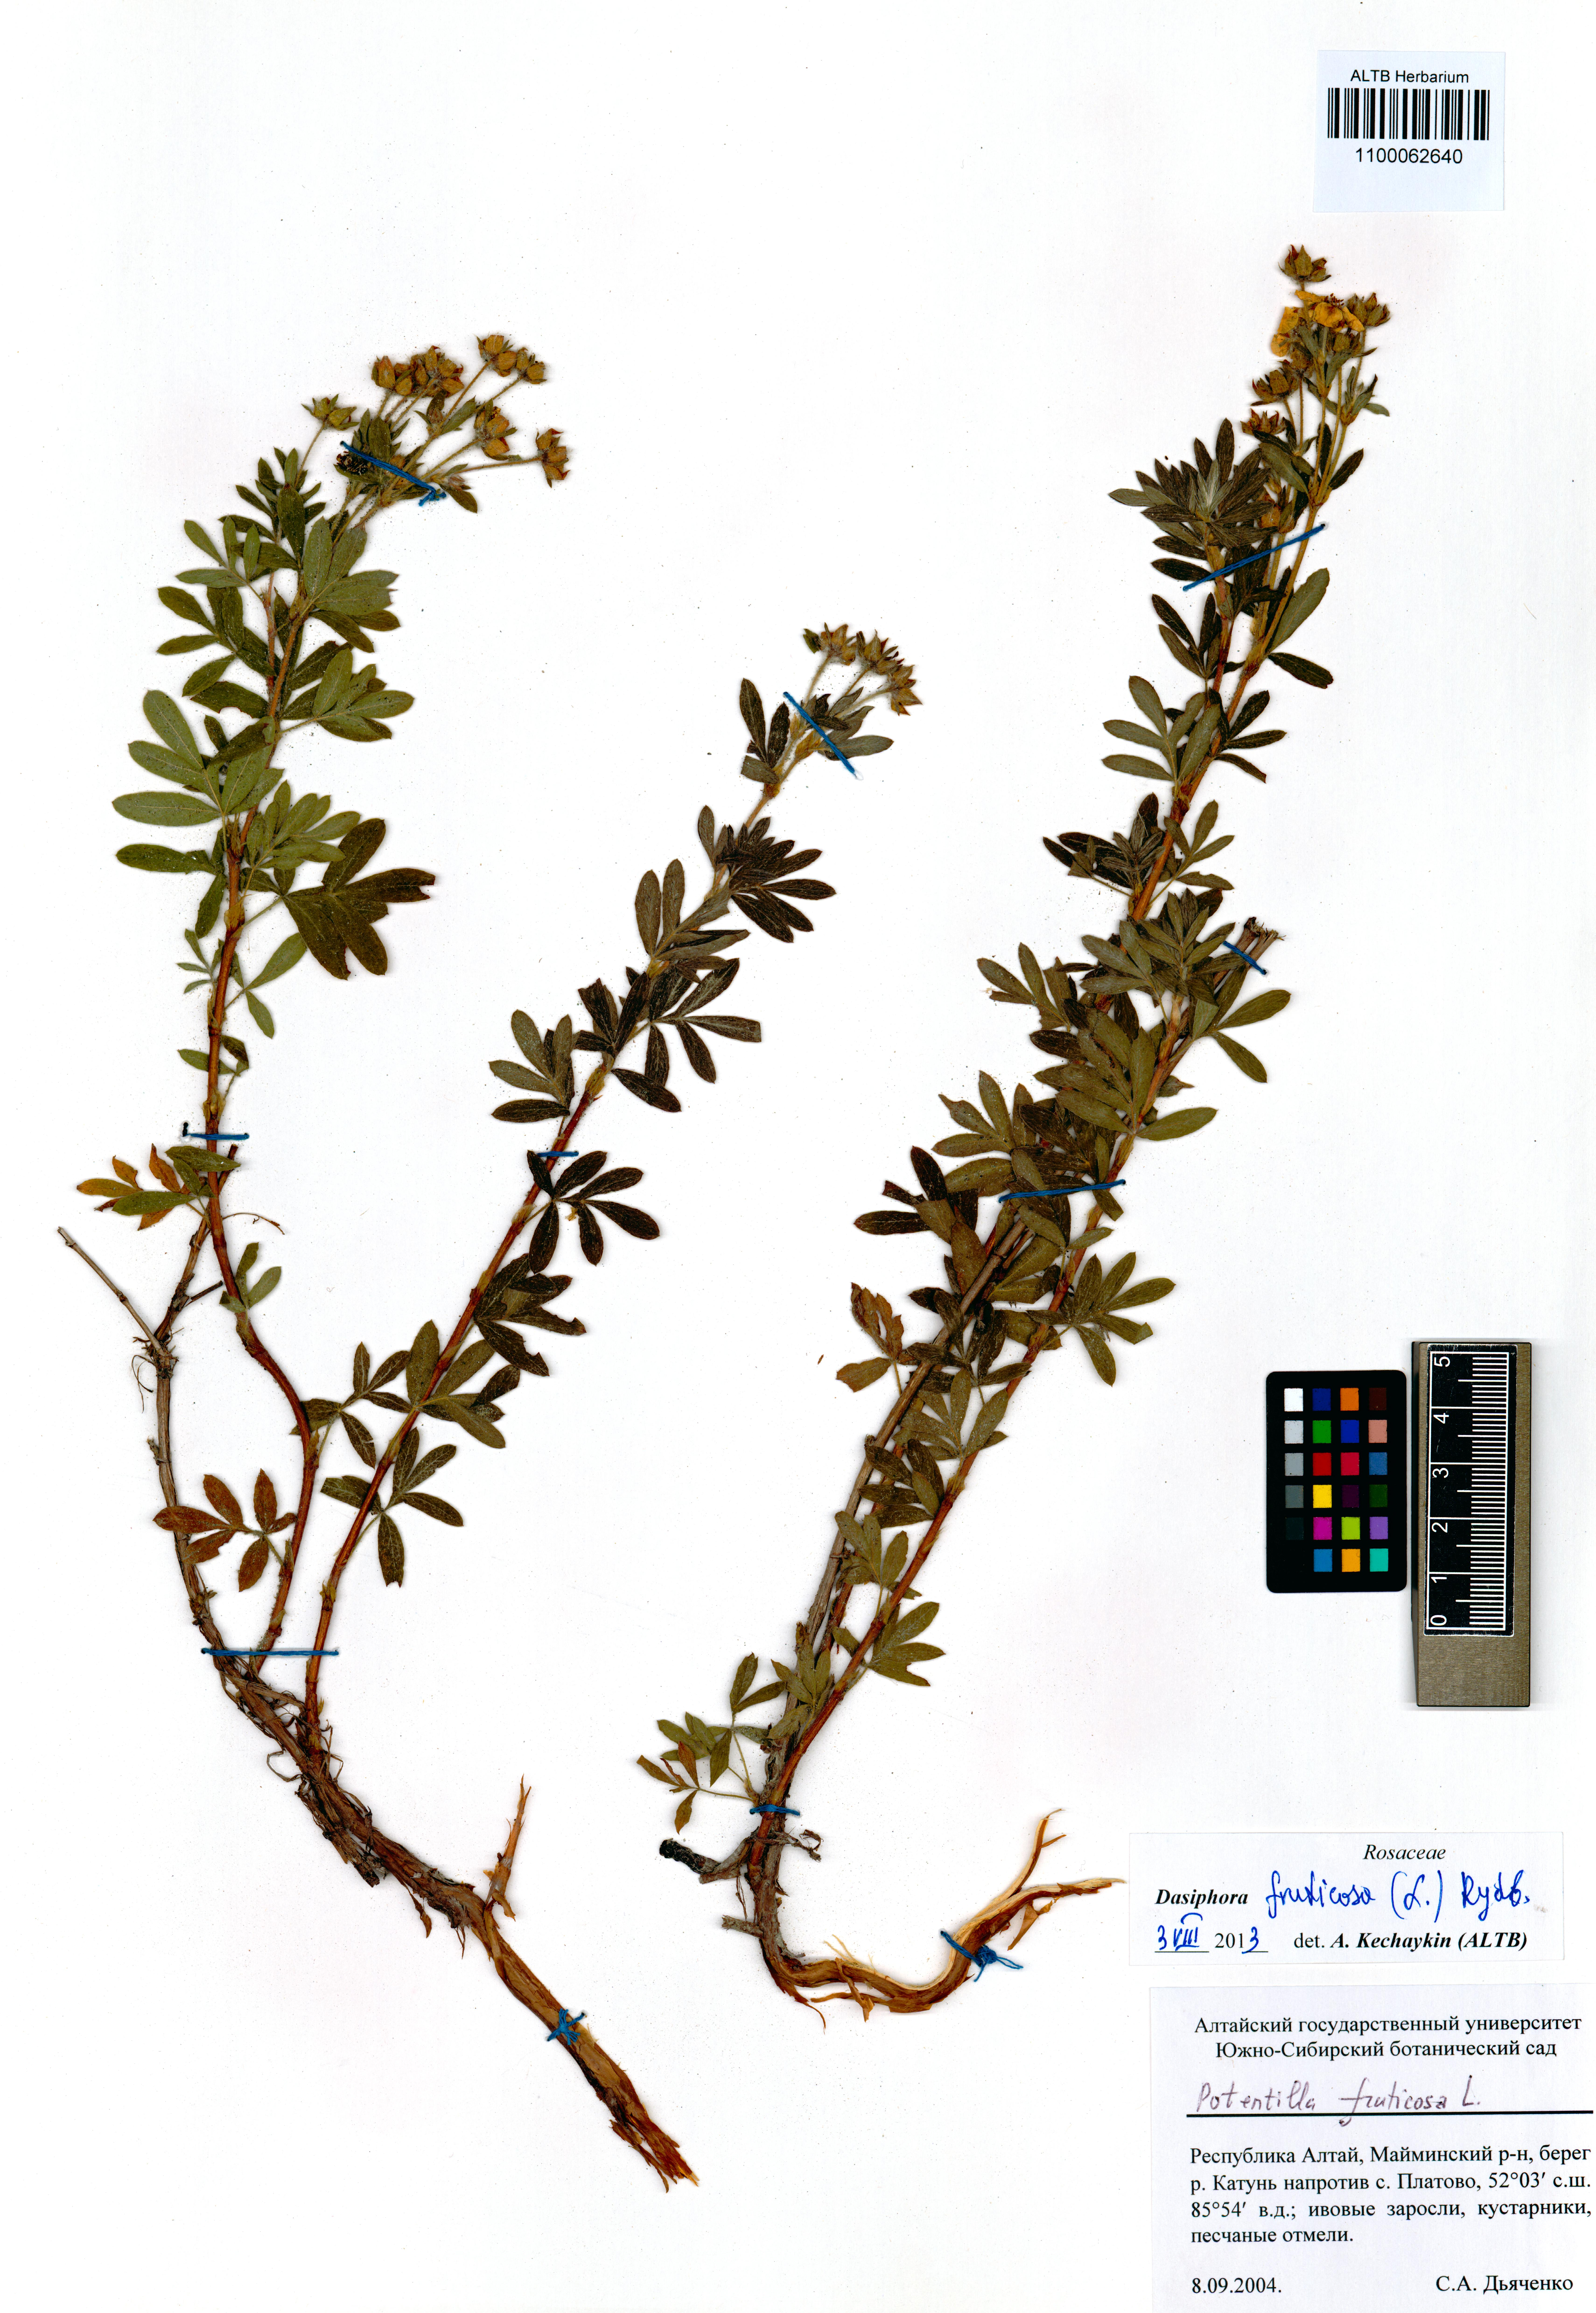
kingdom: Plantae
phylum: Tracheophyta
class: Magnoliopsida
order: Rosales
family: Rosaceae
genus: Dasiphora
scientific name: Dasiphora fruticosa
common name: Shrubby cinquefoil
